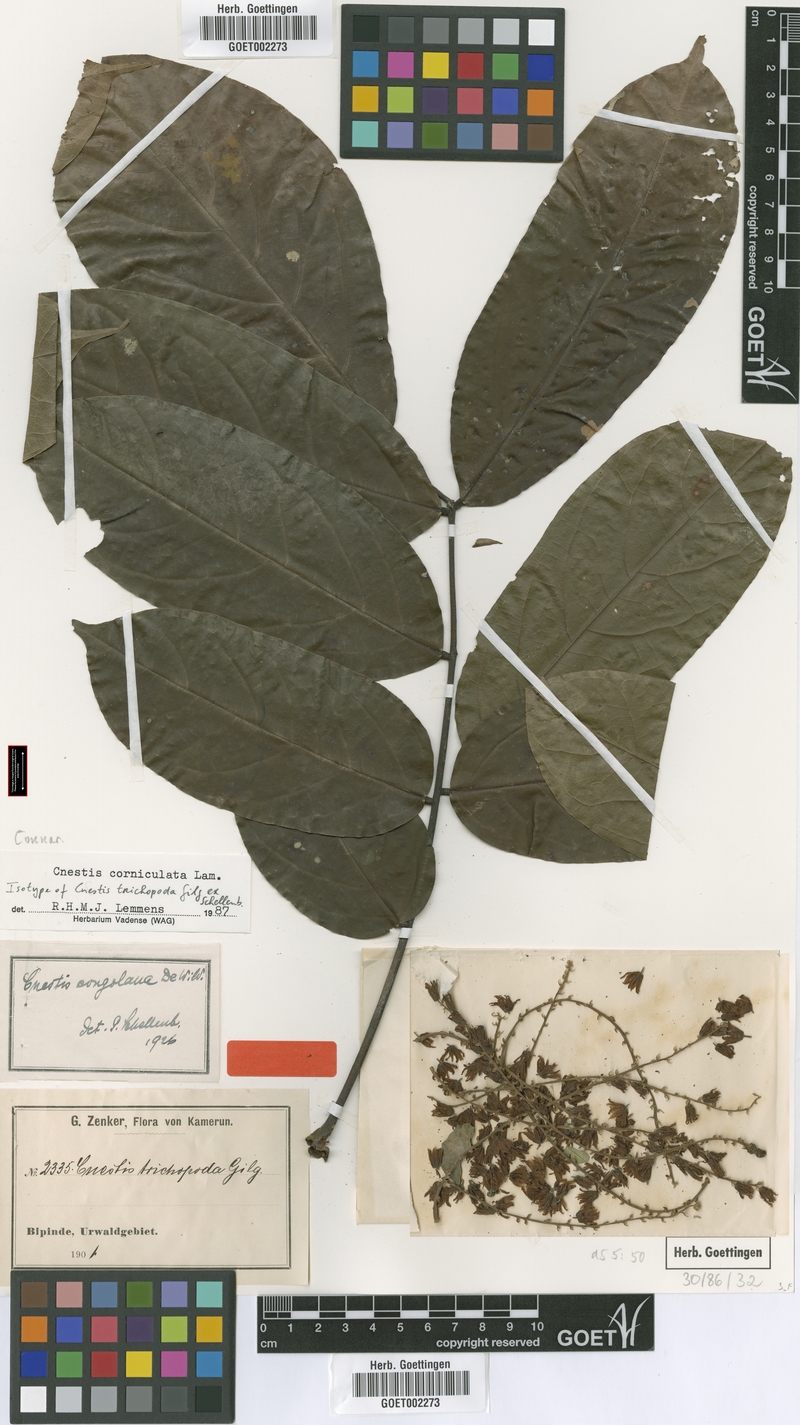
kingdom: Plantae
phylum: Tracheophyta
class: Magnoliopsida
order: Oxalidales
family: Connaraceae
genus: Cnestis
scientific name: Cnestis corniculata
